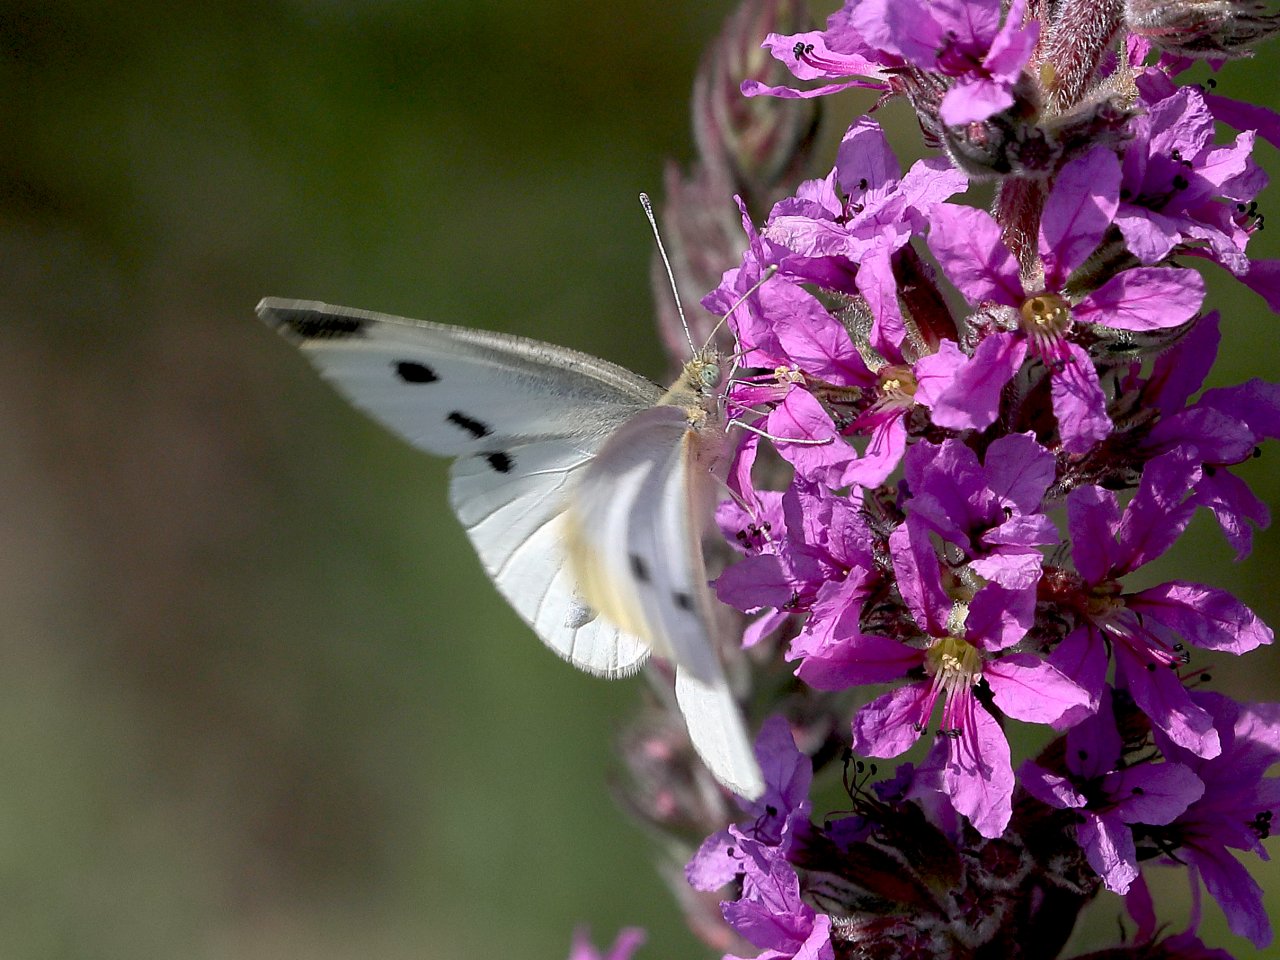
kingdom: Animalia
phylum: Arthropoda
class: Insecta
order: Lepidoptera
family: Pieridae
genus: Pieris
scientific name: Pieris rapae
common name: Cabbage White
